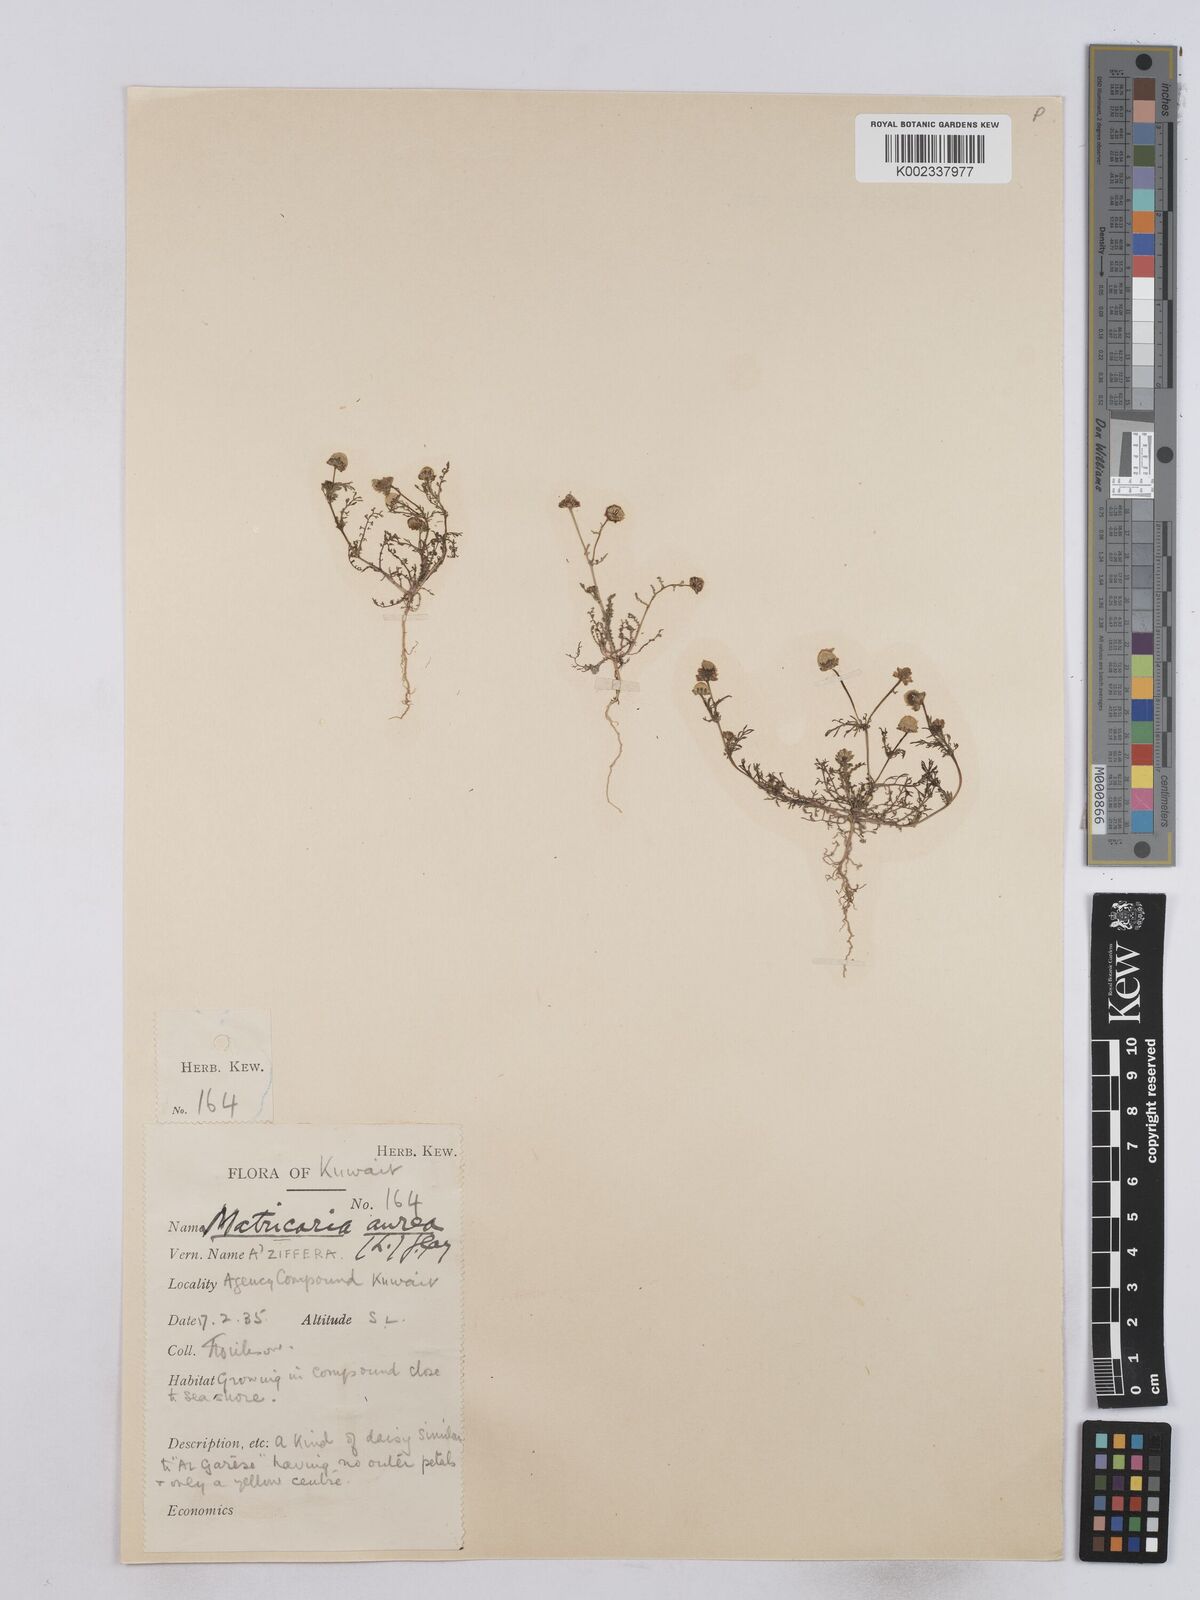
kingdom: Plantae
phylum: Tracheophyta
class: Magnoliopsida
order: Asterales
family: Asteraceae
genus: Matricaria
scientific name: Matricaria aurea
